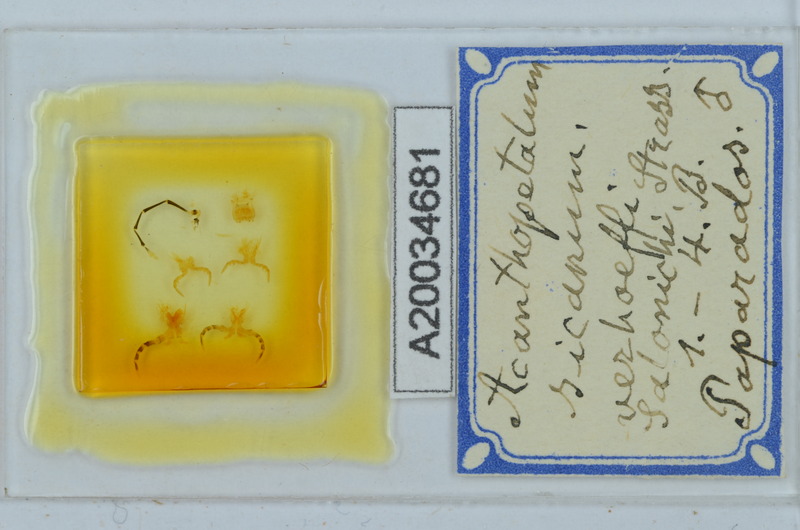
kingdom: Animalia
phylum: Arthropoda
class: Diplopoda
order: Callipodida
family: Schizopetalidae
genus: Acanthopetalum
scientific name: Acanthopetalum richii
